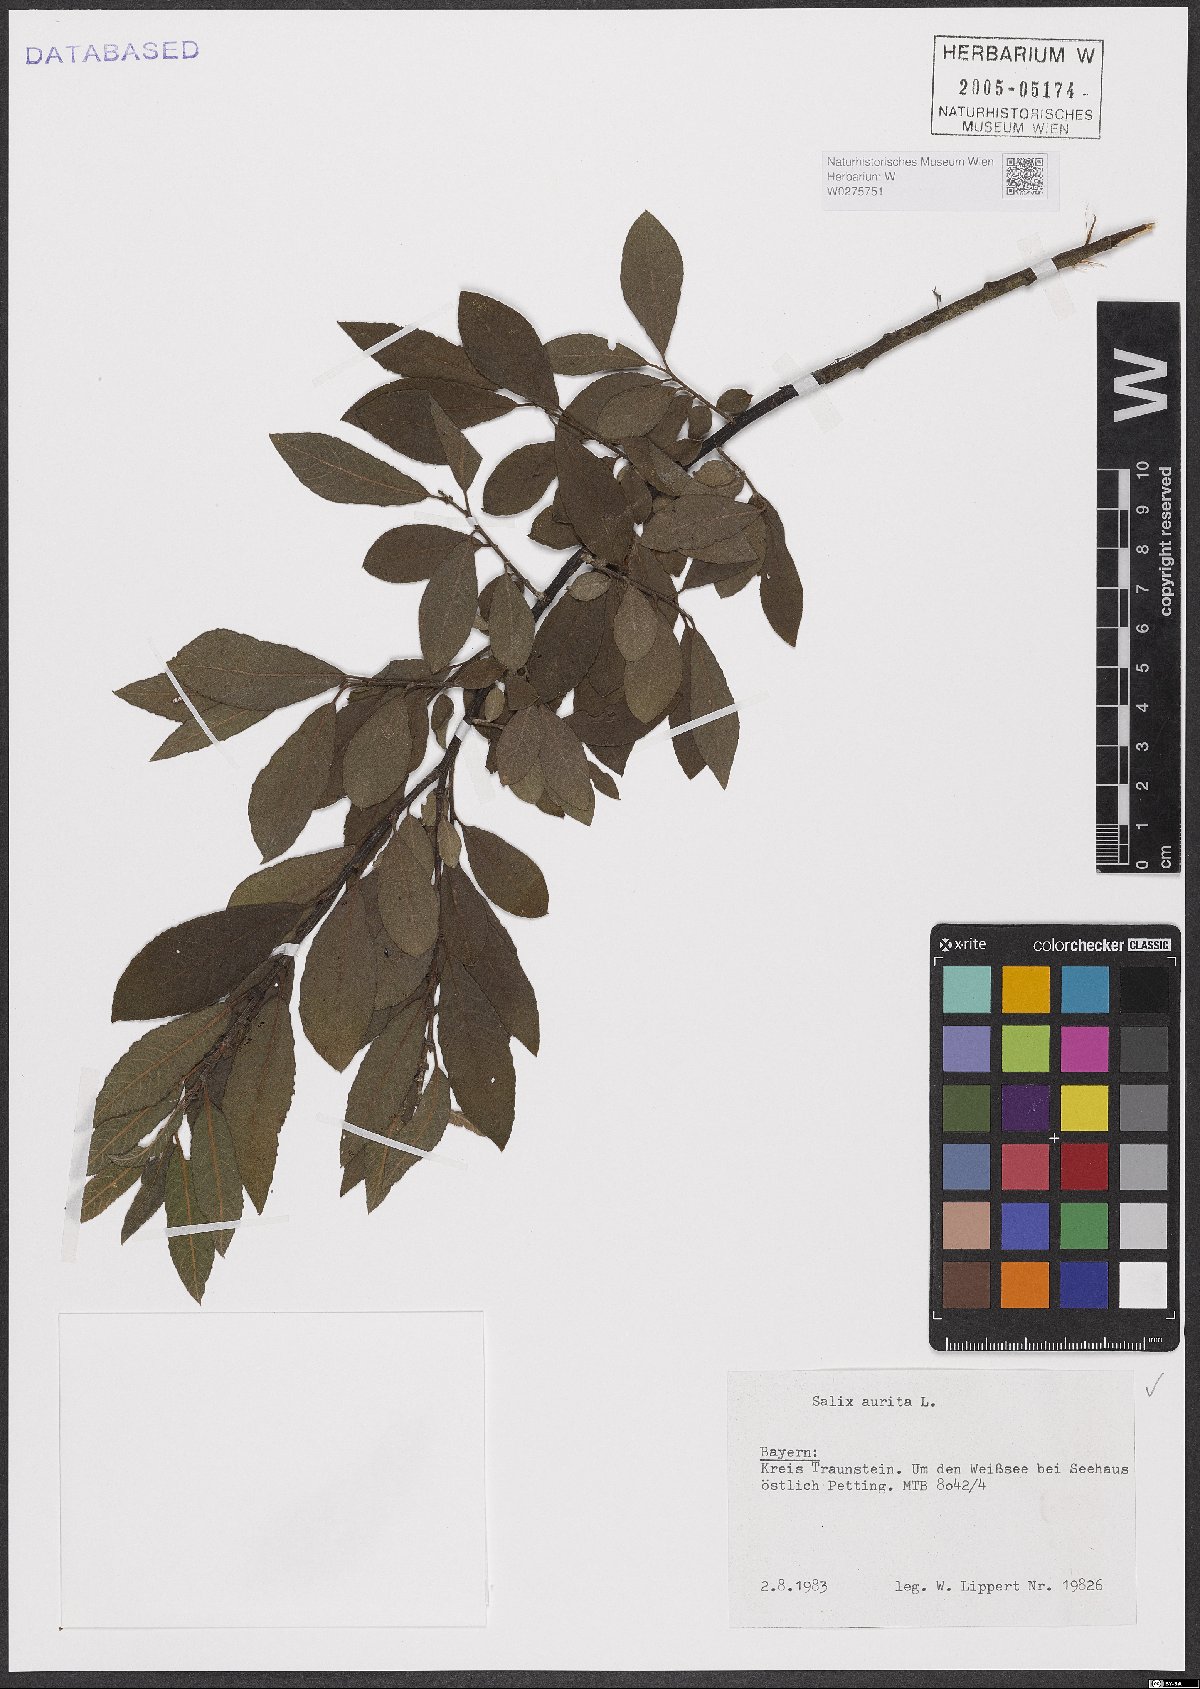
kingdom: Plantae
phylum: Tracheophyta
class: Magnoliopsida
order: Malpighiales
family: Salicaceae
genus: Salix
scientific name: Salix aurita
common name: Eared willow
